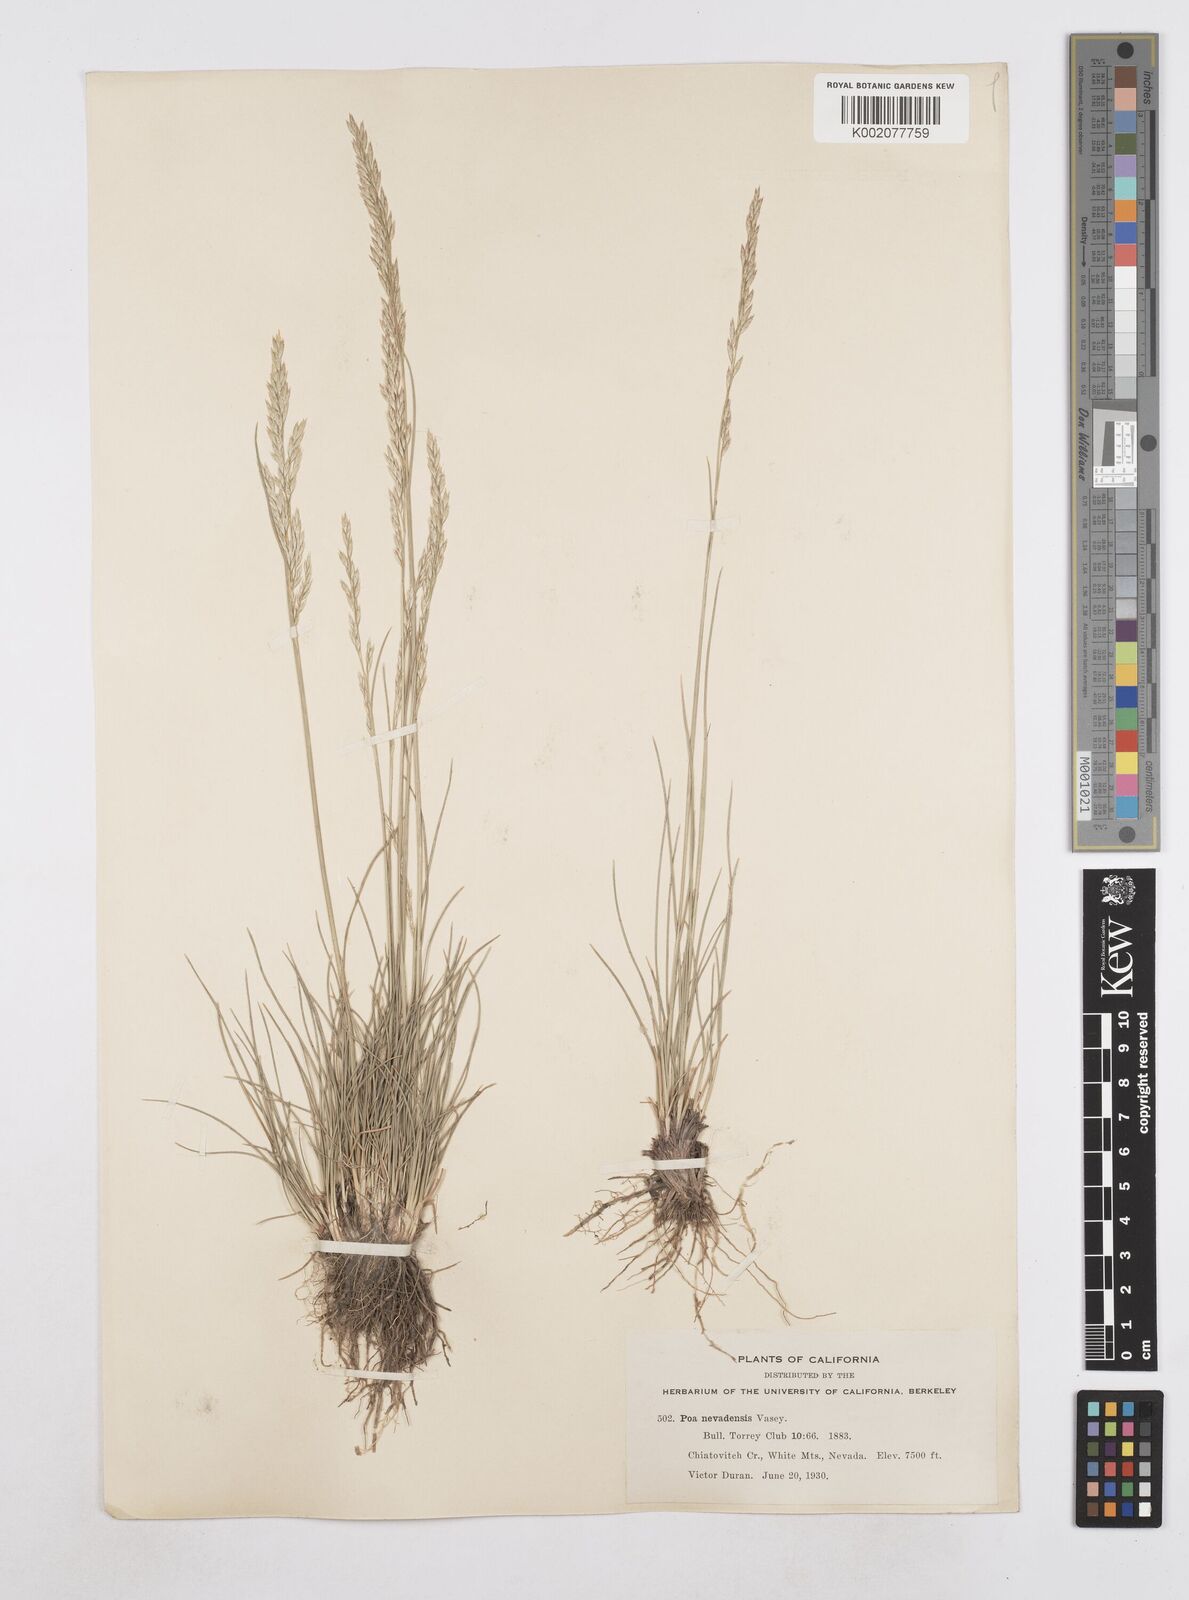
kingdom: Plantae
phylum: Tracheophyta
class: Liliopsida
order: Poales
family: Poaceae
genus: Poa
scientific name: Poa secunda
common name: Sandberg bluegrass
